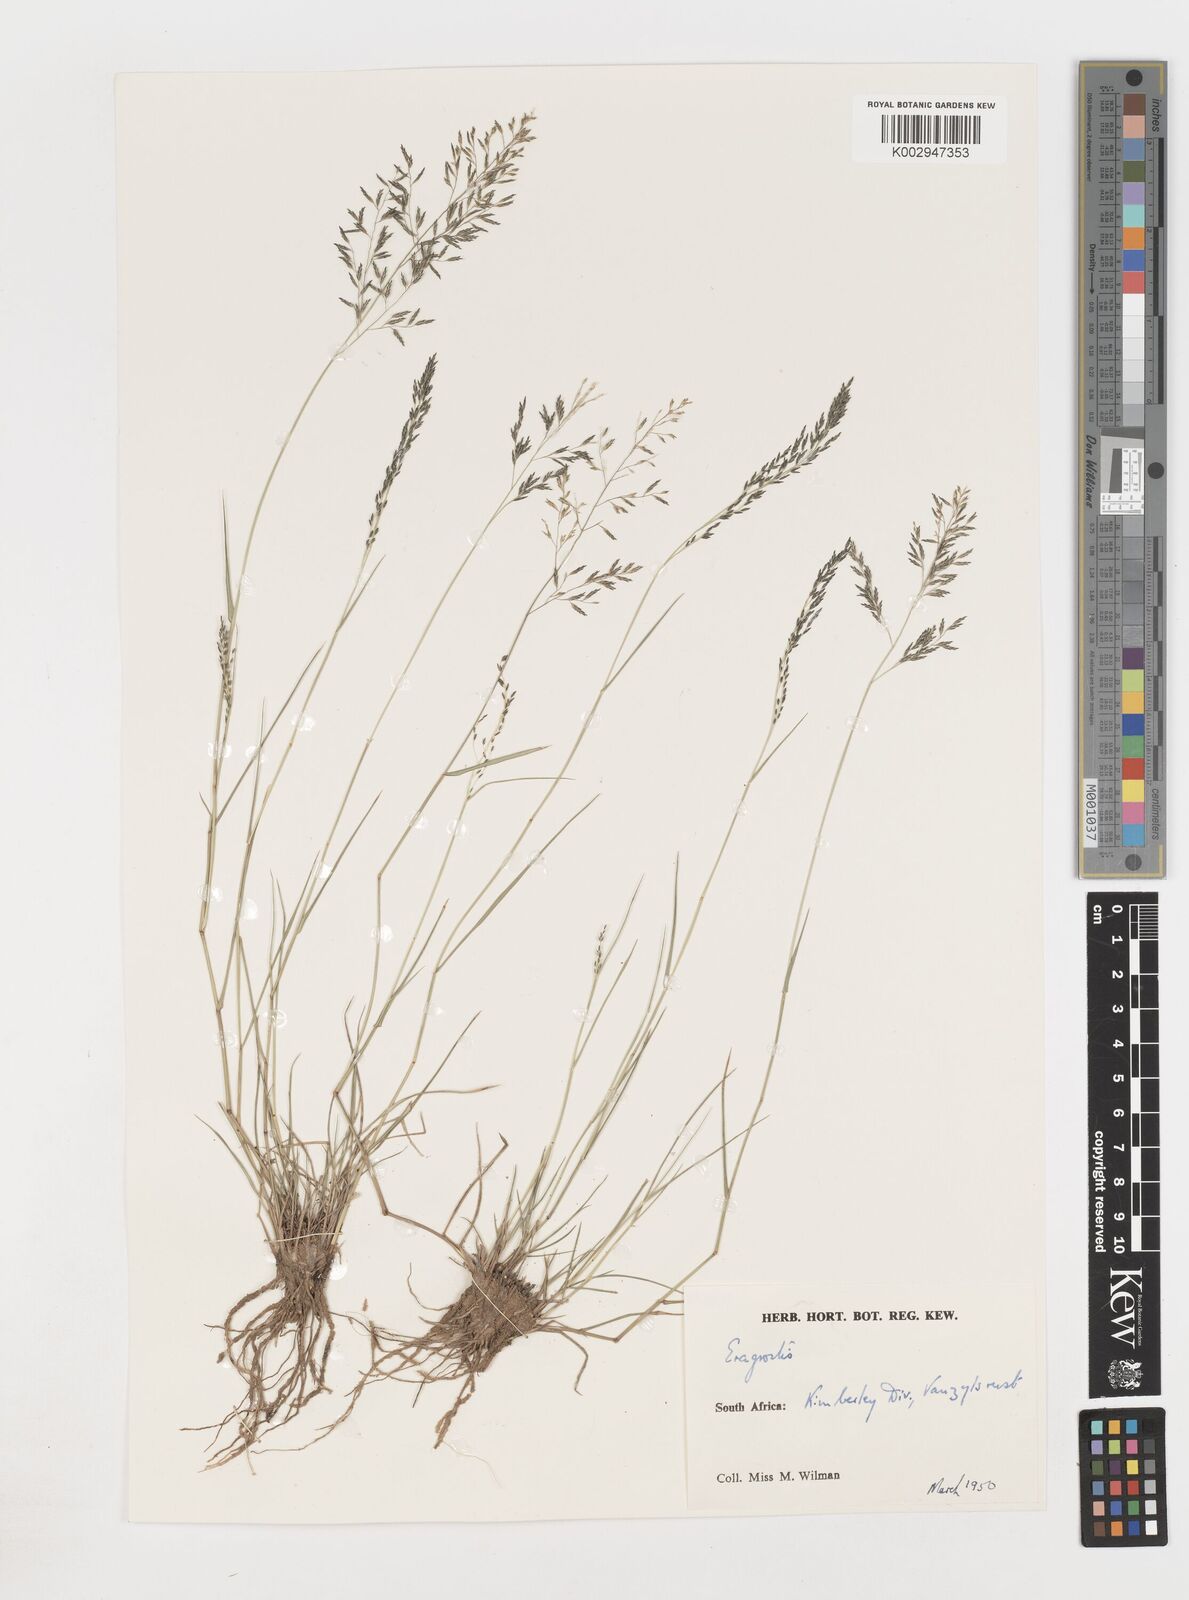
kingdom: Plantae
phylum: Tracheophyta
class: Liliopsida
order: Poales
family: Poaceae
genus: Eragrostis
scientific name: Eragrostis
